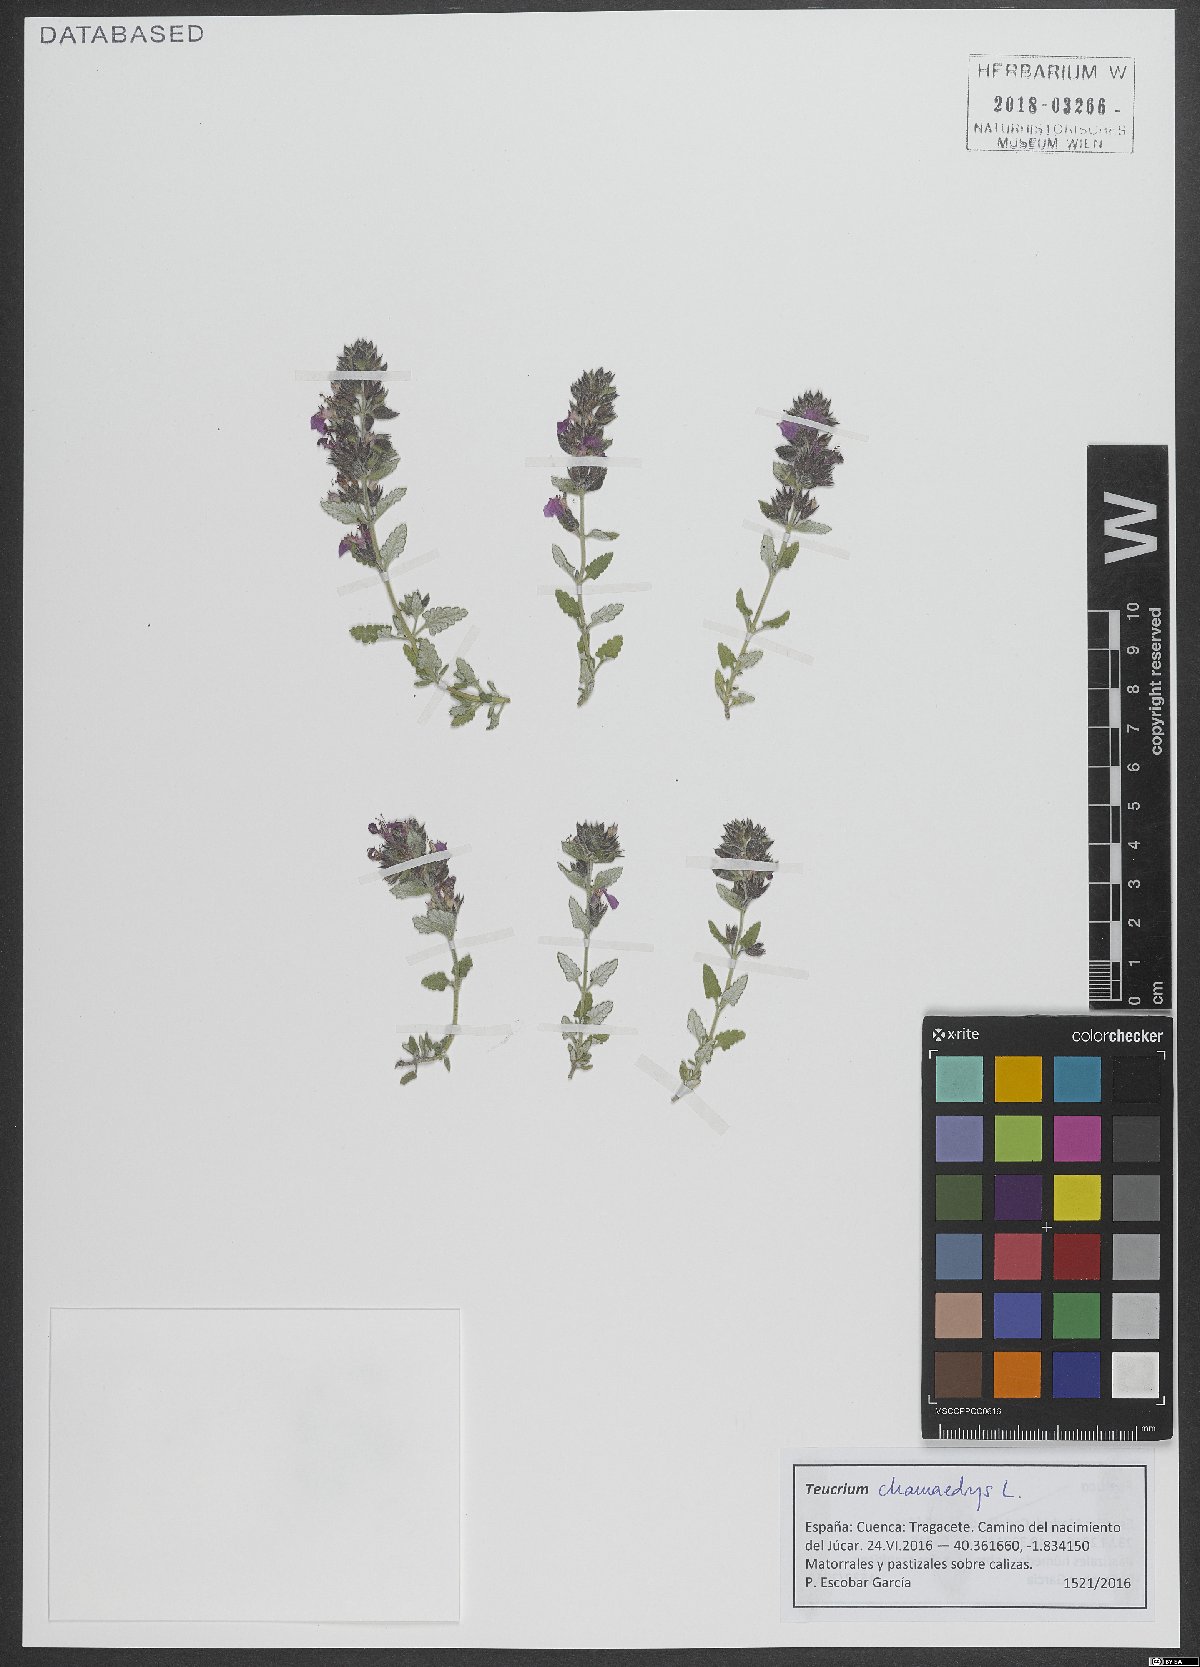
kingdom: Plantae
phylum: Tracheophyta
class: Magnoliopsida
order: Lamiales
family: Lamiaceae
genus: Teucrium
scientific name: Teucrium chamaedrys
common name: Wall germander
